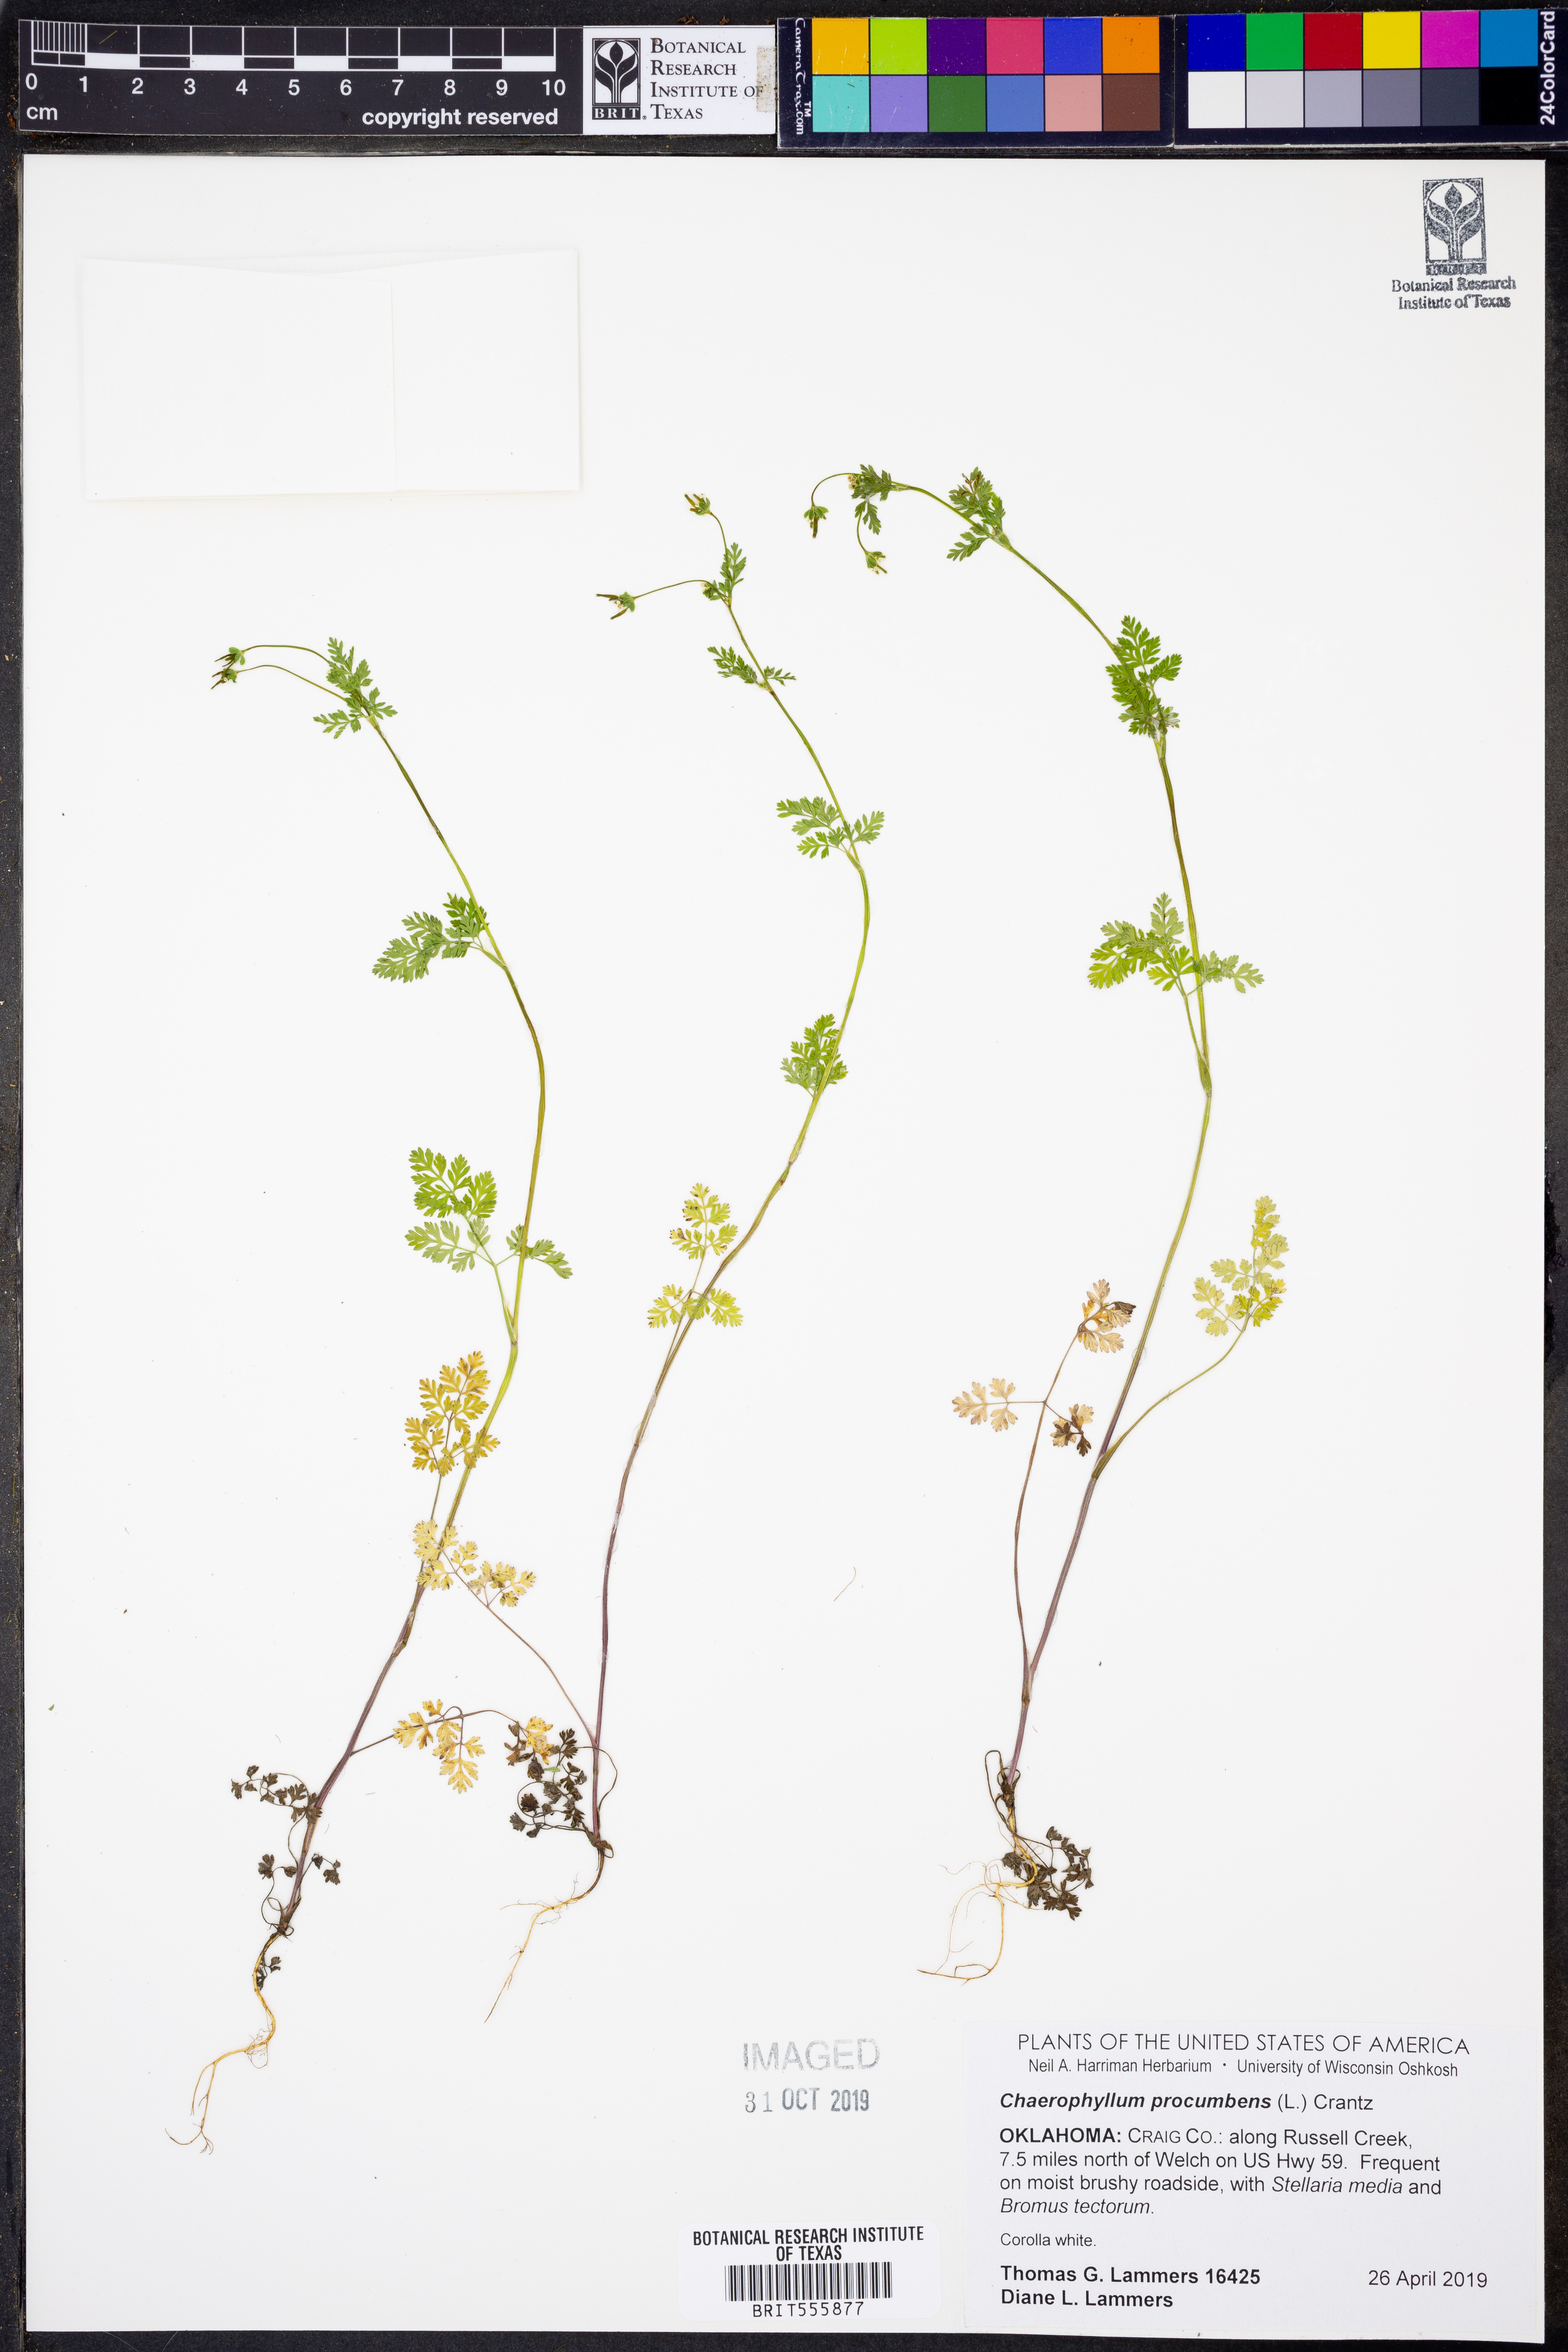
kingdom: Plantae
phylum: Tracheophyta
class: Magnoliopsida
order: Apiales
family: Apiaceae
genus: Chaerophyllum
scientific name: Chaerophyllum procumbens
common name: Spreading chervil
